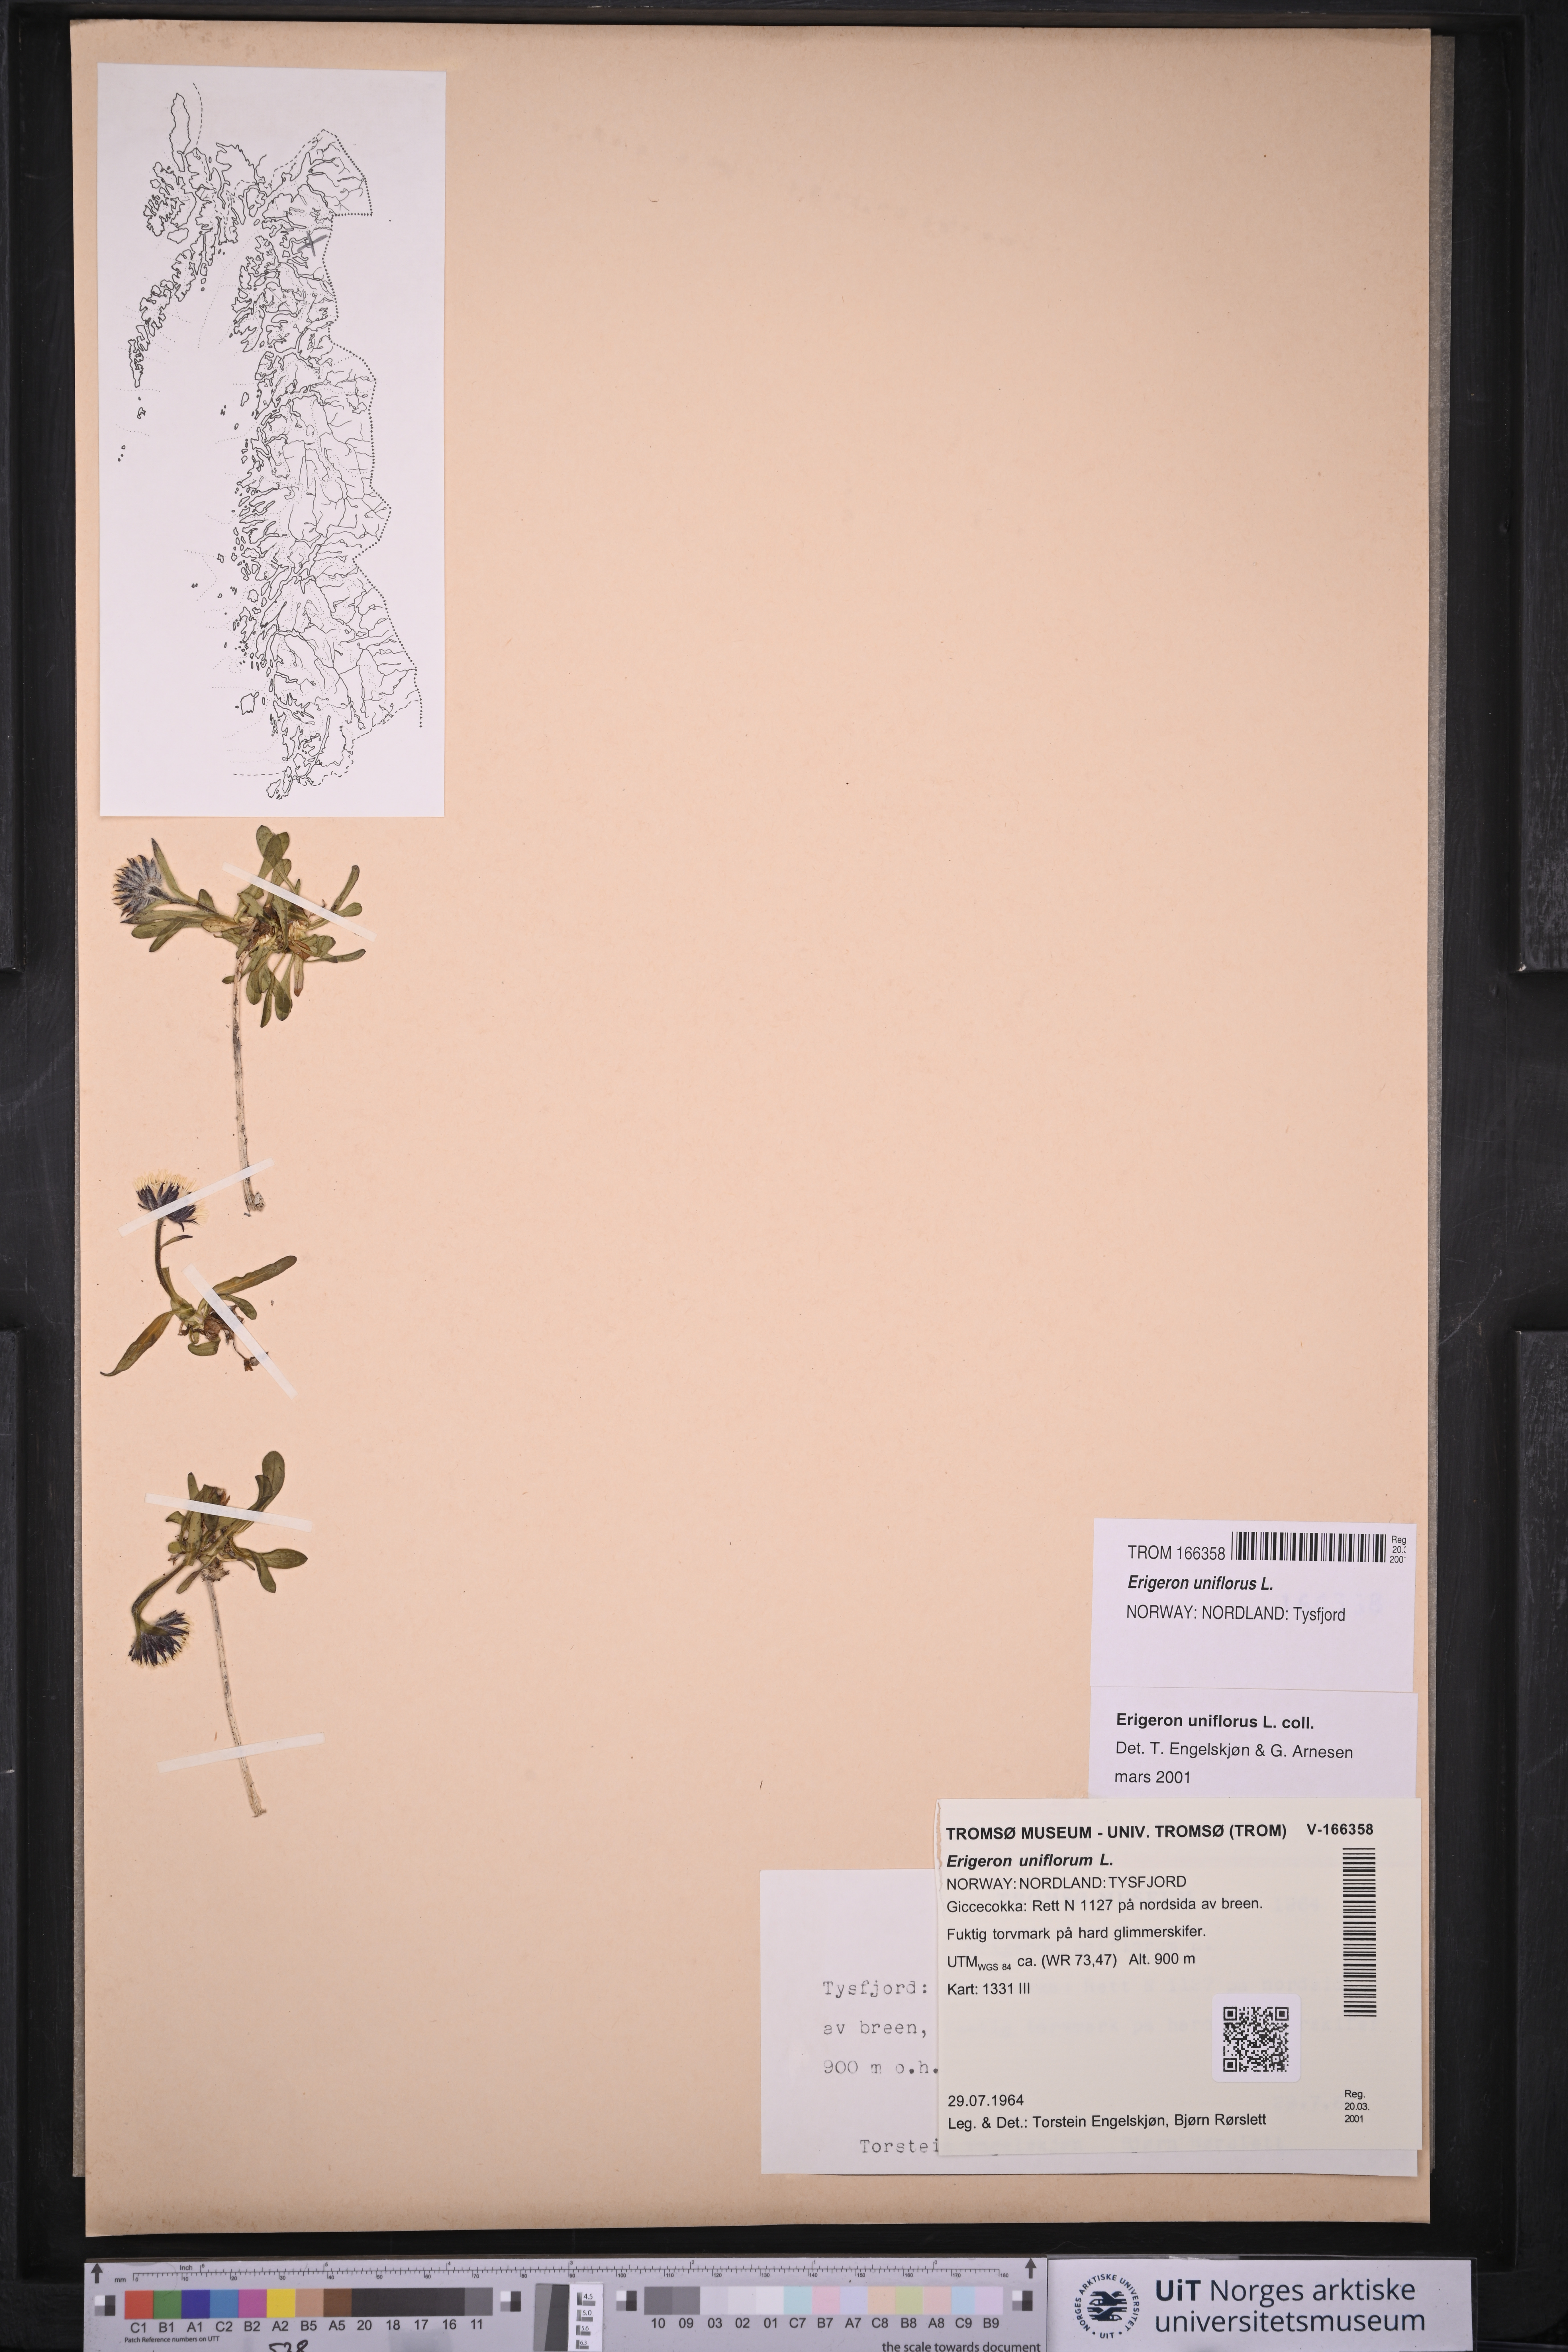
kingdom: Plantae
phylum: Tracheophyta
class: Magnoliopsida
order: Asterales
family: Asteraceae
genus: Erigeron
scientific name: Erigeron uniflorus
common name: Northern daisy
